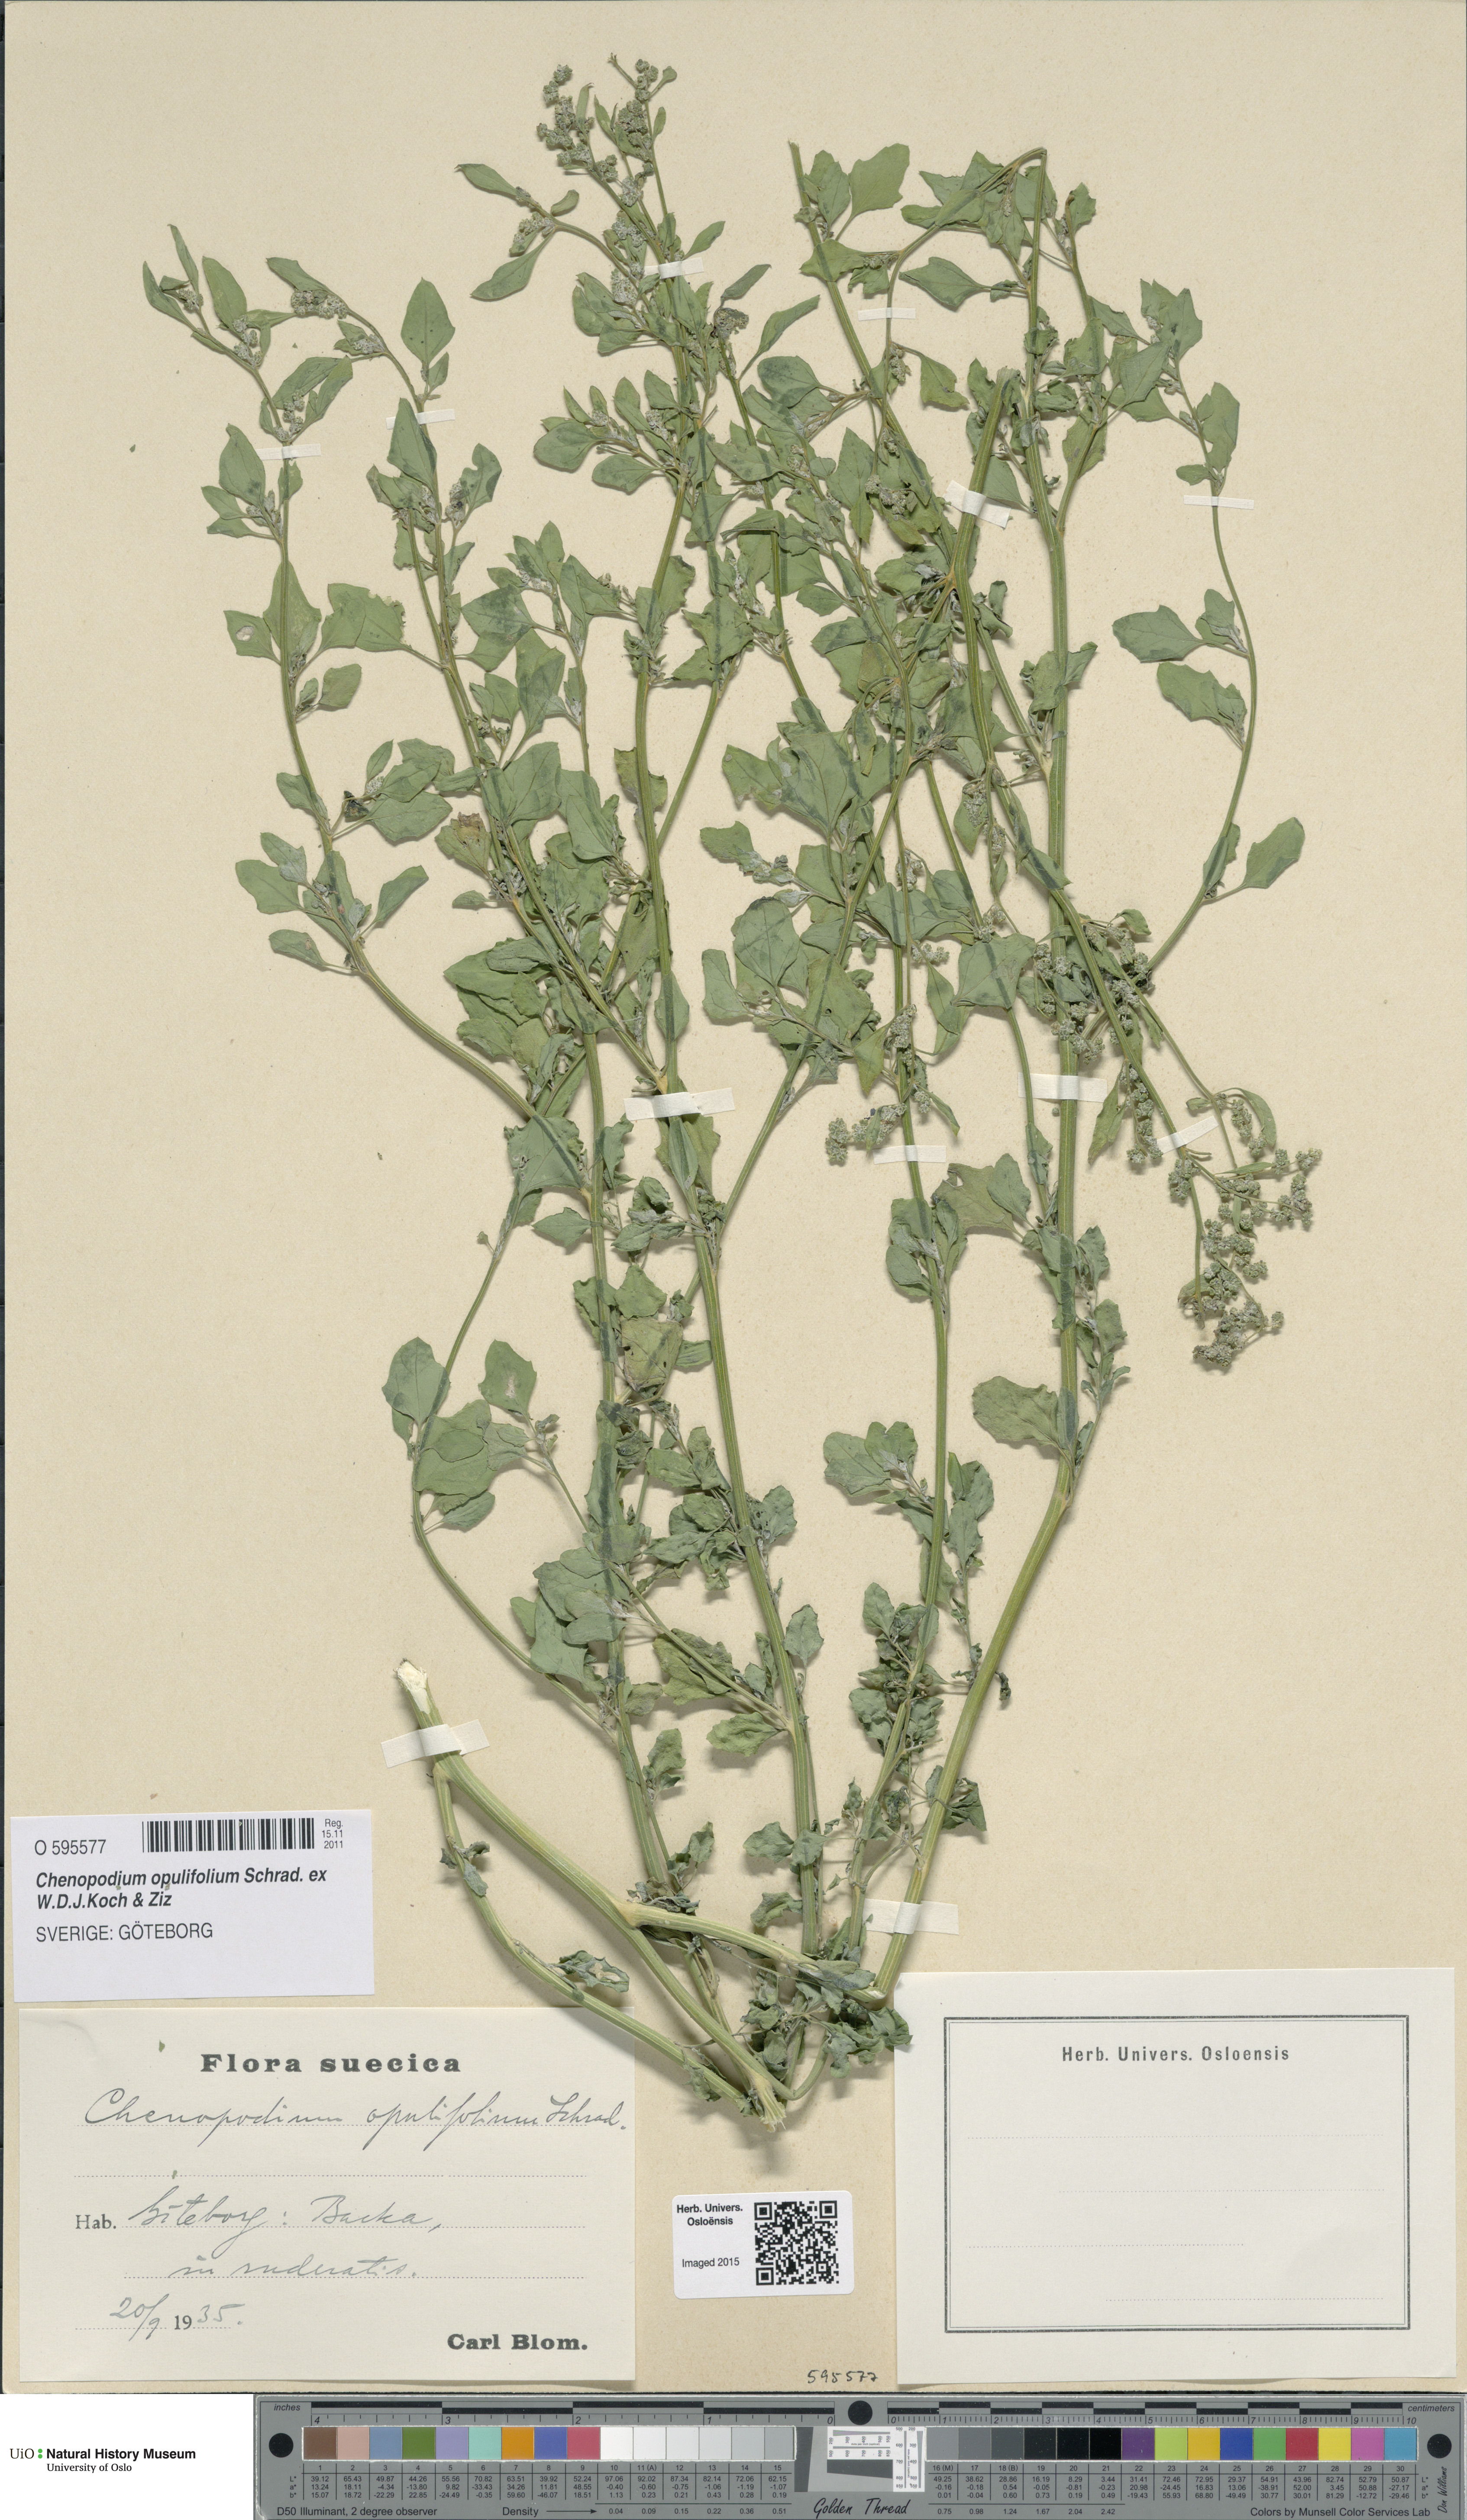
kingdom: Plantae
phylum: Tracheophyta
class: Magnoliopsida
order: Caryophyllales
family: Amaranthaceae
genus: Chenopodium
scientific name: Chenopodium opulifolium
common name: Grey goosefoot
